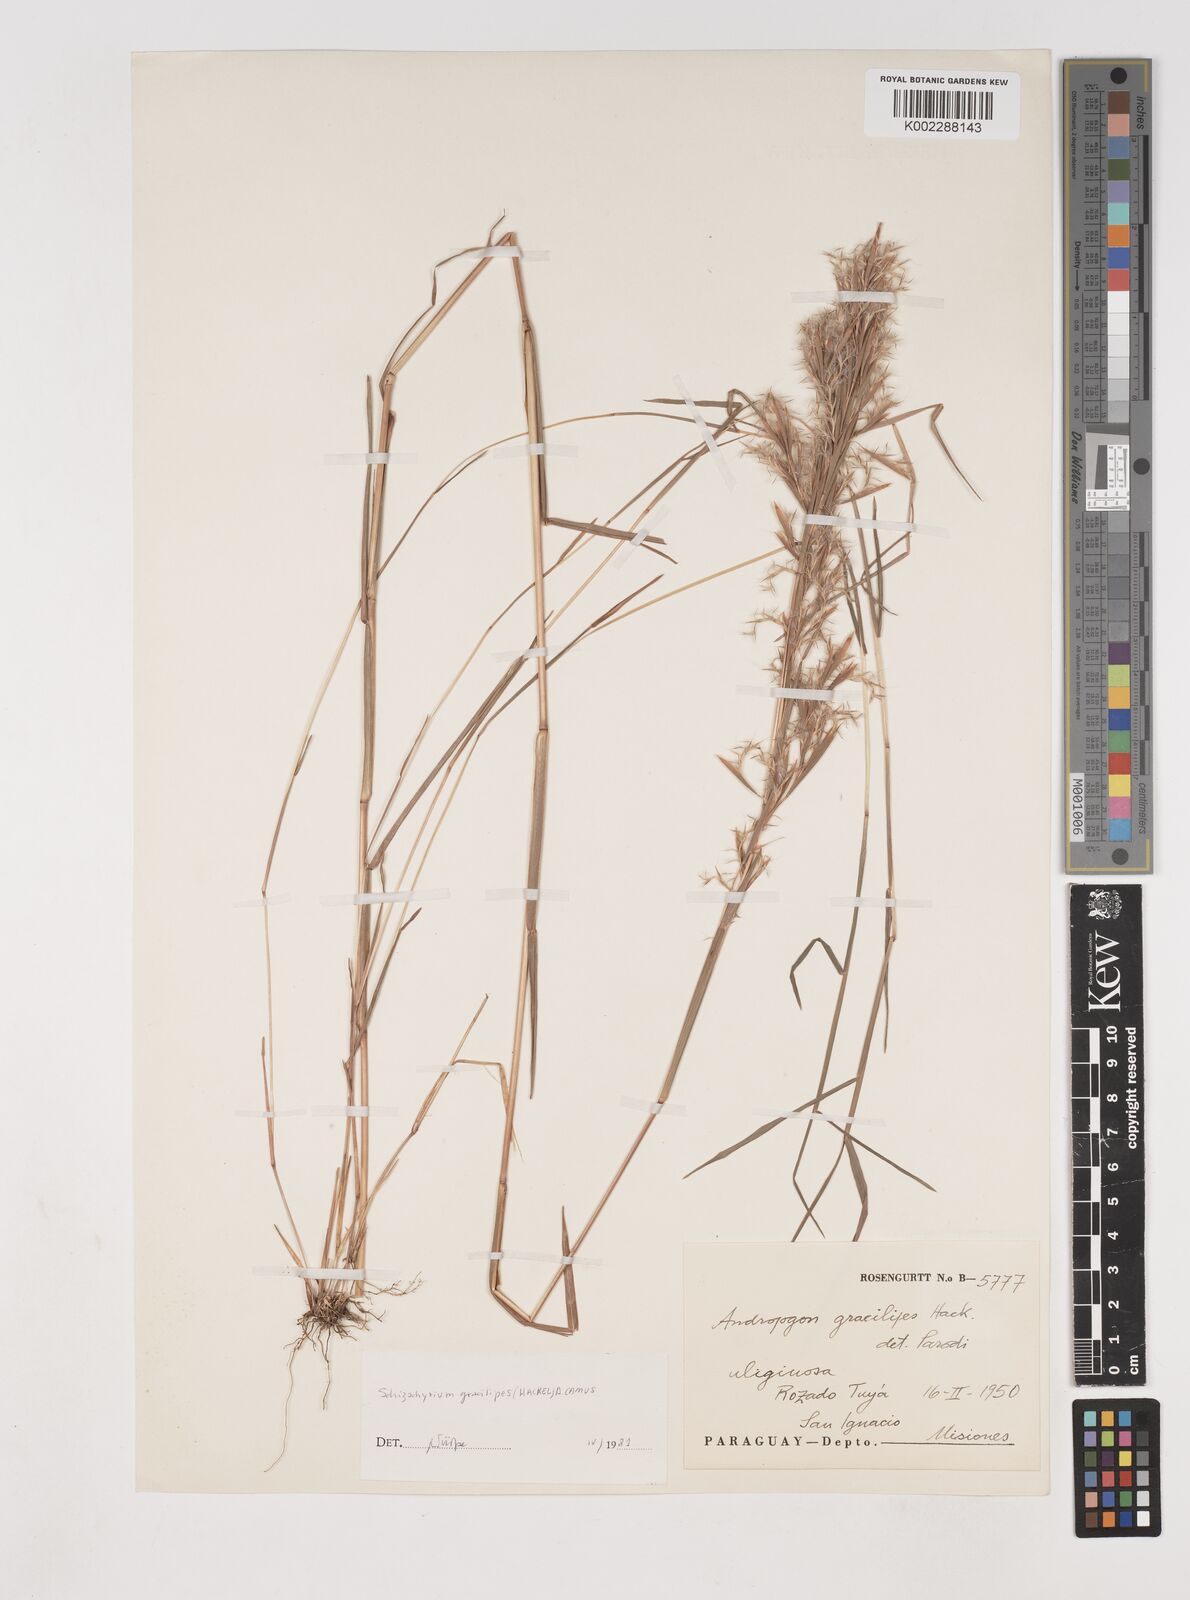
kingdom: Plantae
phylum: Tracheophyta
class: Liliopsida
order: Poales
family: Poaceae
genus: Schizachyrium
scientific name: Schizachyrium gracilipes
